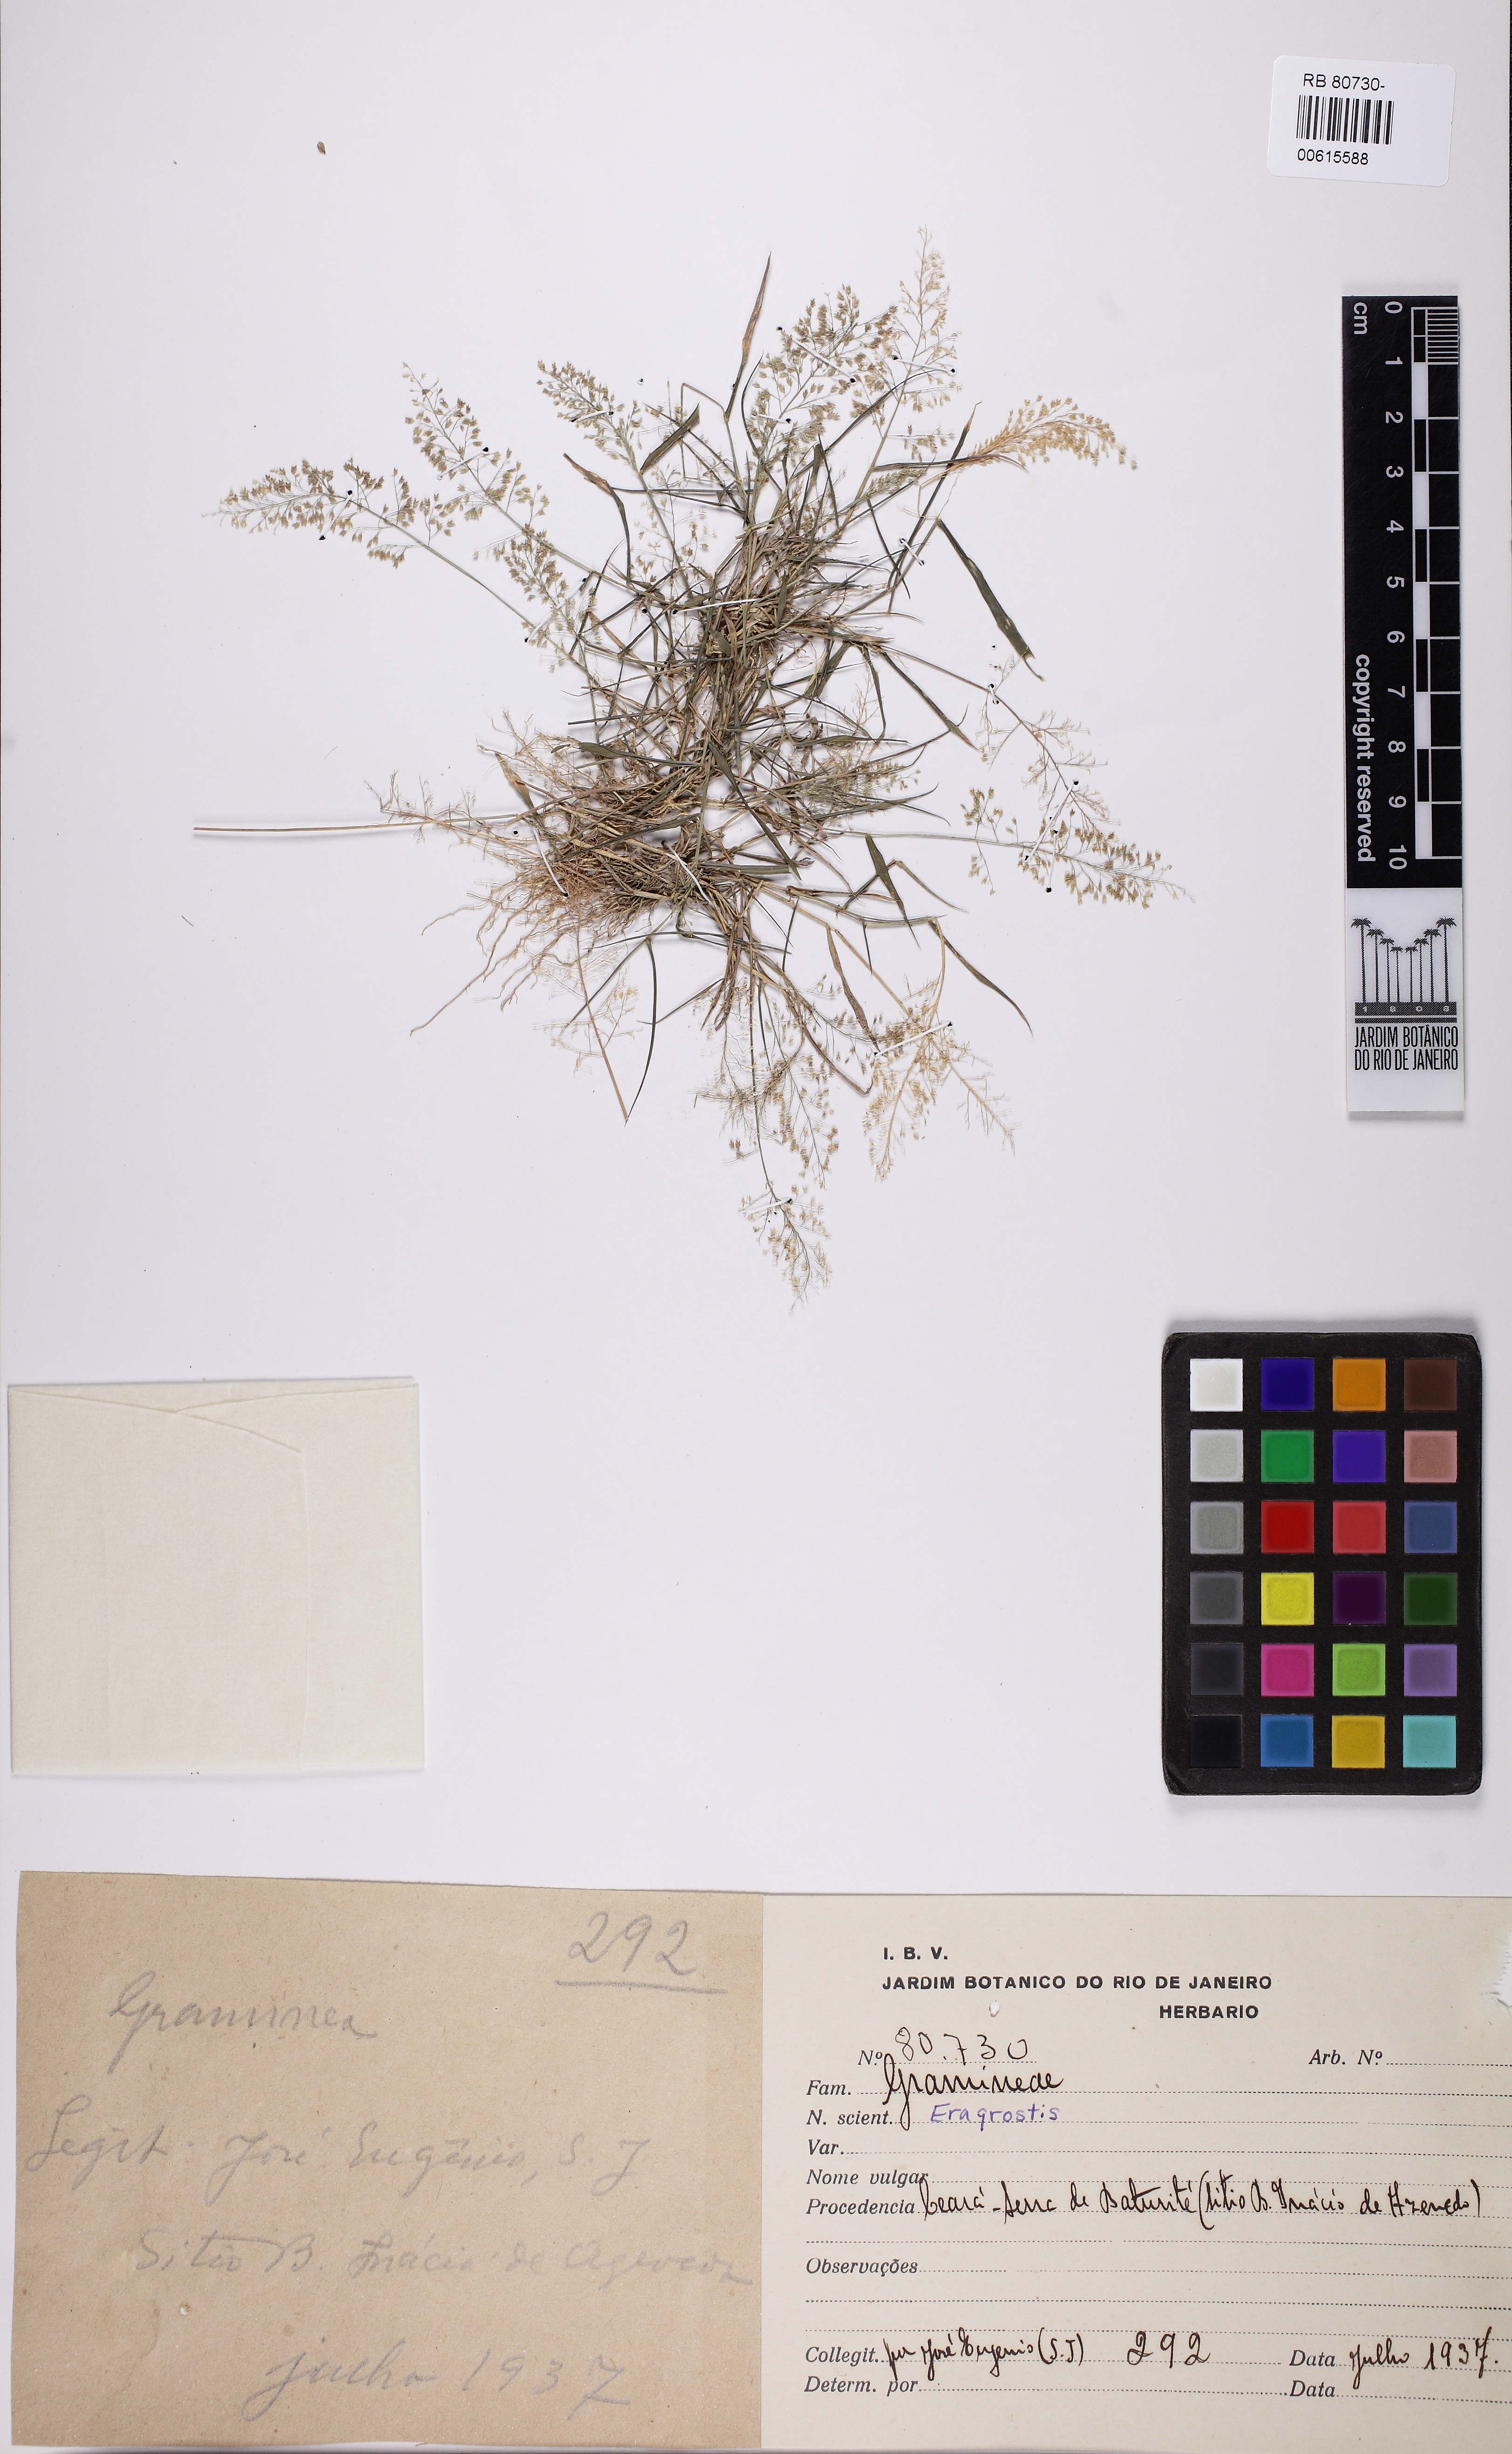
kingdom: Plantae
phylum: Tracheophyta
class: Liliopsida
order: Poales
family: Poaceae
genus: Eragrostis
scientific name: Eragrostis tenella
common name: Japanese lovegrass
